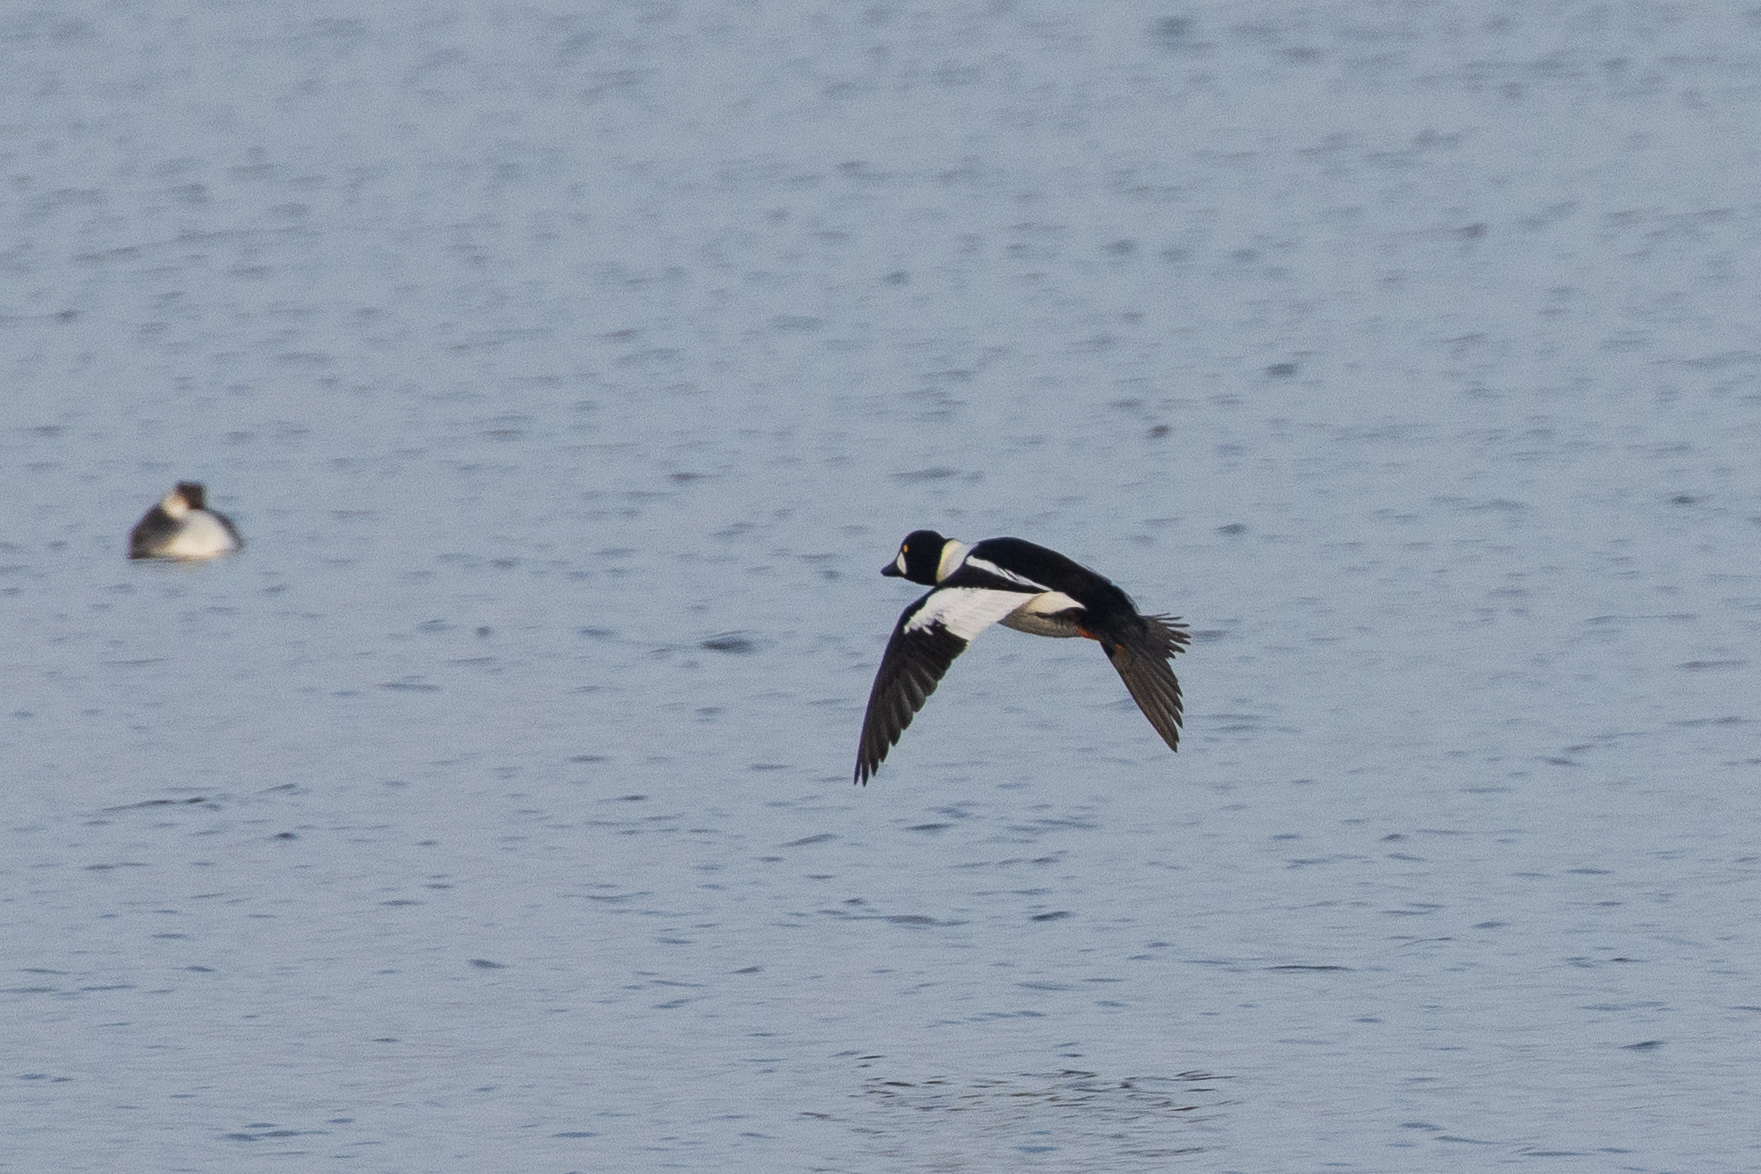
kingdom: Animalia
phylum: Chordata
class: Aves
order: Anseriformes
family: Anatidae
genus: Bucephala
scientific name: Bucephala clangula
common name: Hvinand
